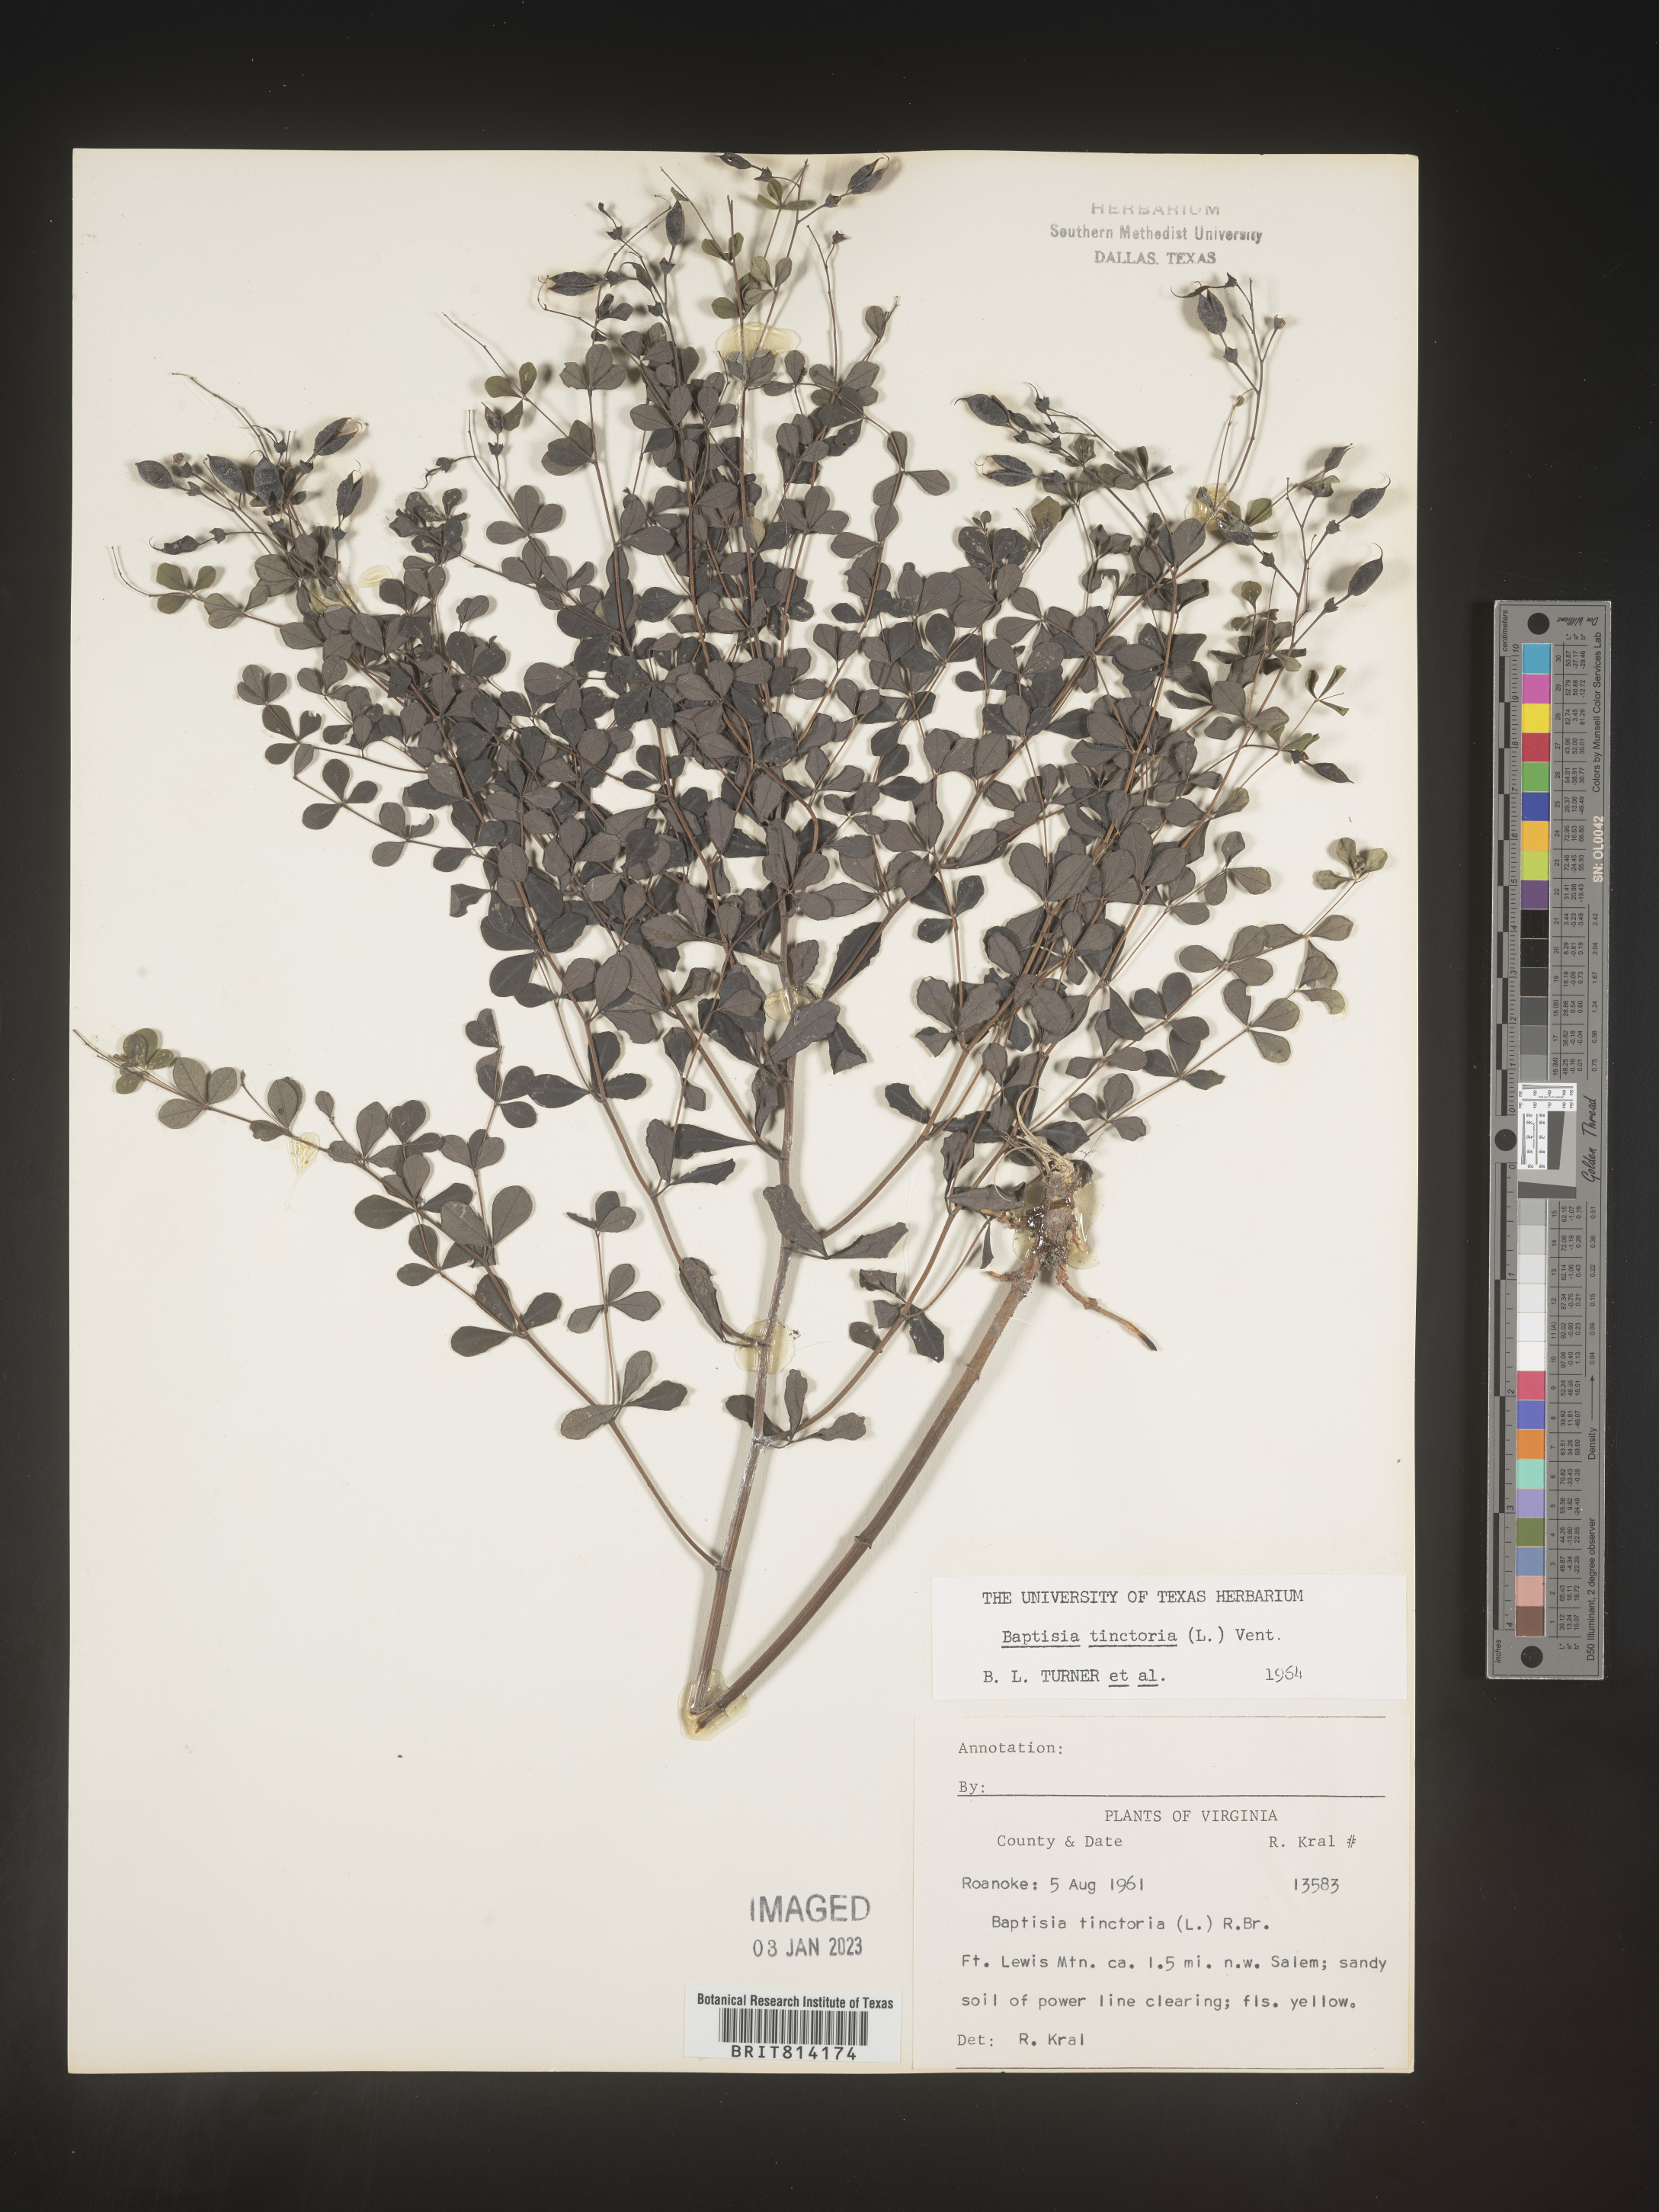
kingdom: Plantae
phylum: Tracheophyta
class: Magnoliopsida
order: Fabales
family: Fabaceae
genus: Baptisia
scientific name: Baptisia tinctoria
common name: Wild indigo
